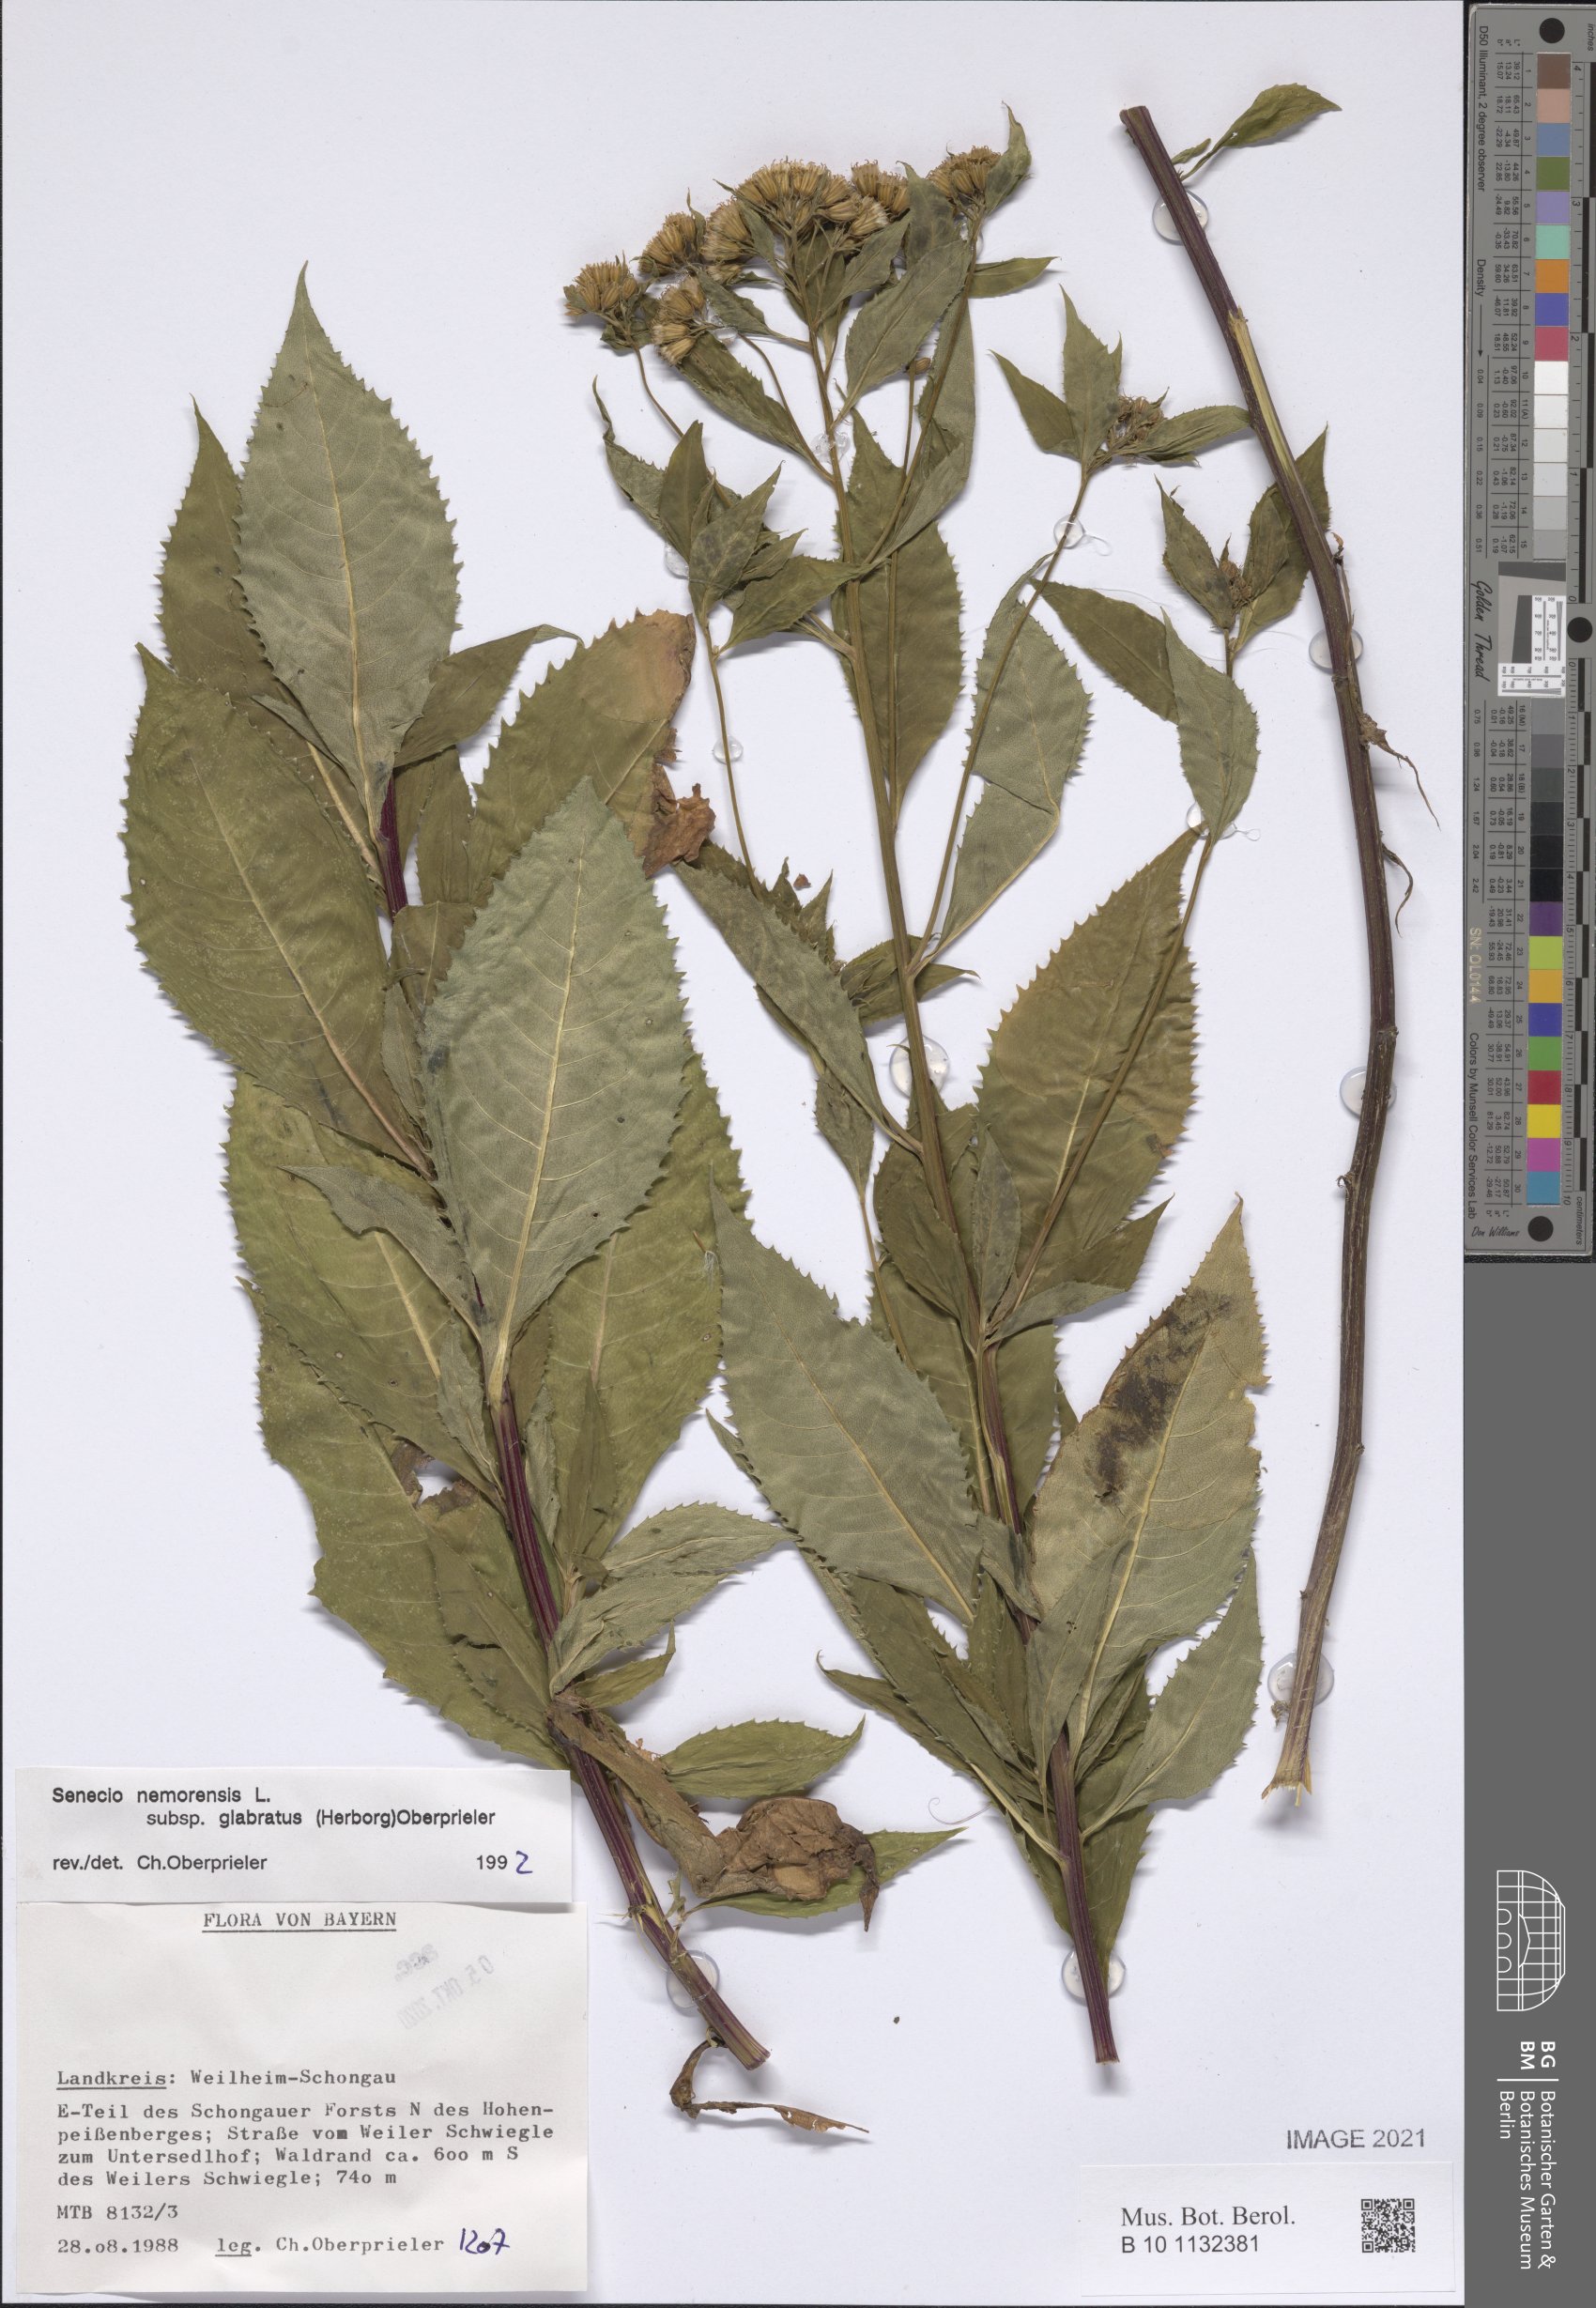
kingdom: Plantae
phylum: Tracheophyta
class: Magnoliopsida
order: Asterales
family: Asteraceae
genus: Senecio
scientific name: Senecio germanicus
